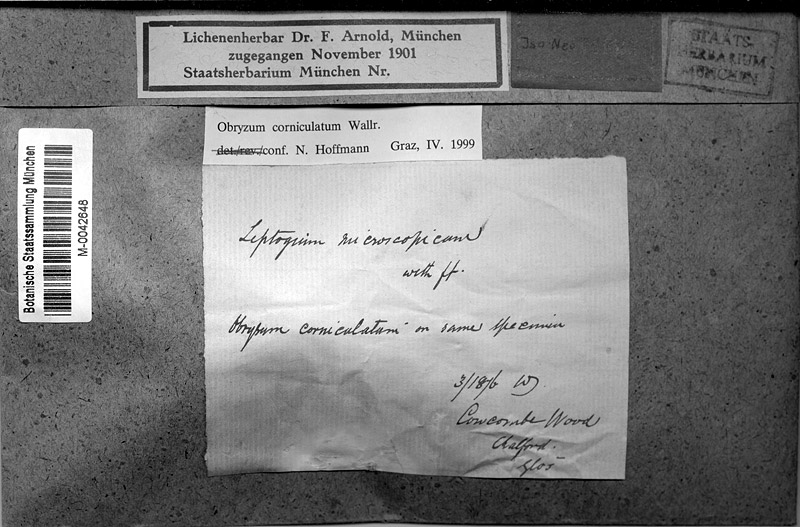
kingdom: Fungi
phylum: Ascomycota
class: Sordariomycetes
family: Obryzaceae
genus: Obryzum
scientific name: Obryzum corniculatum
